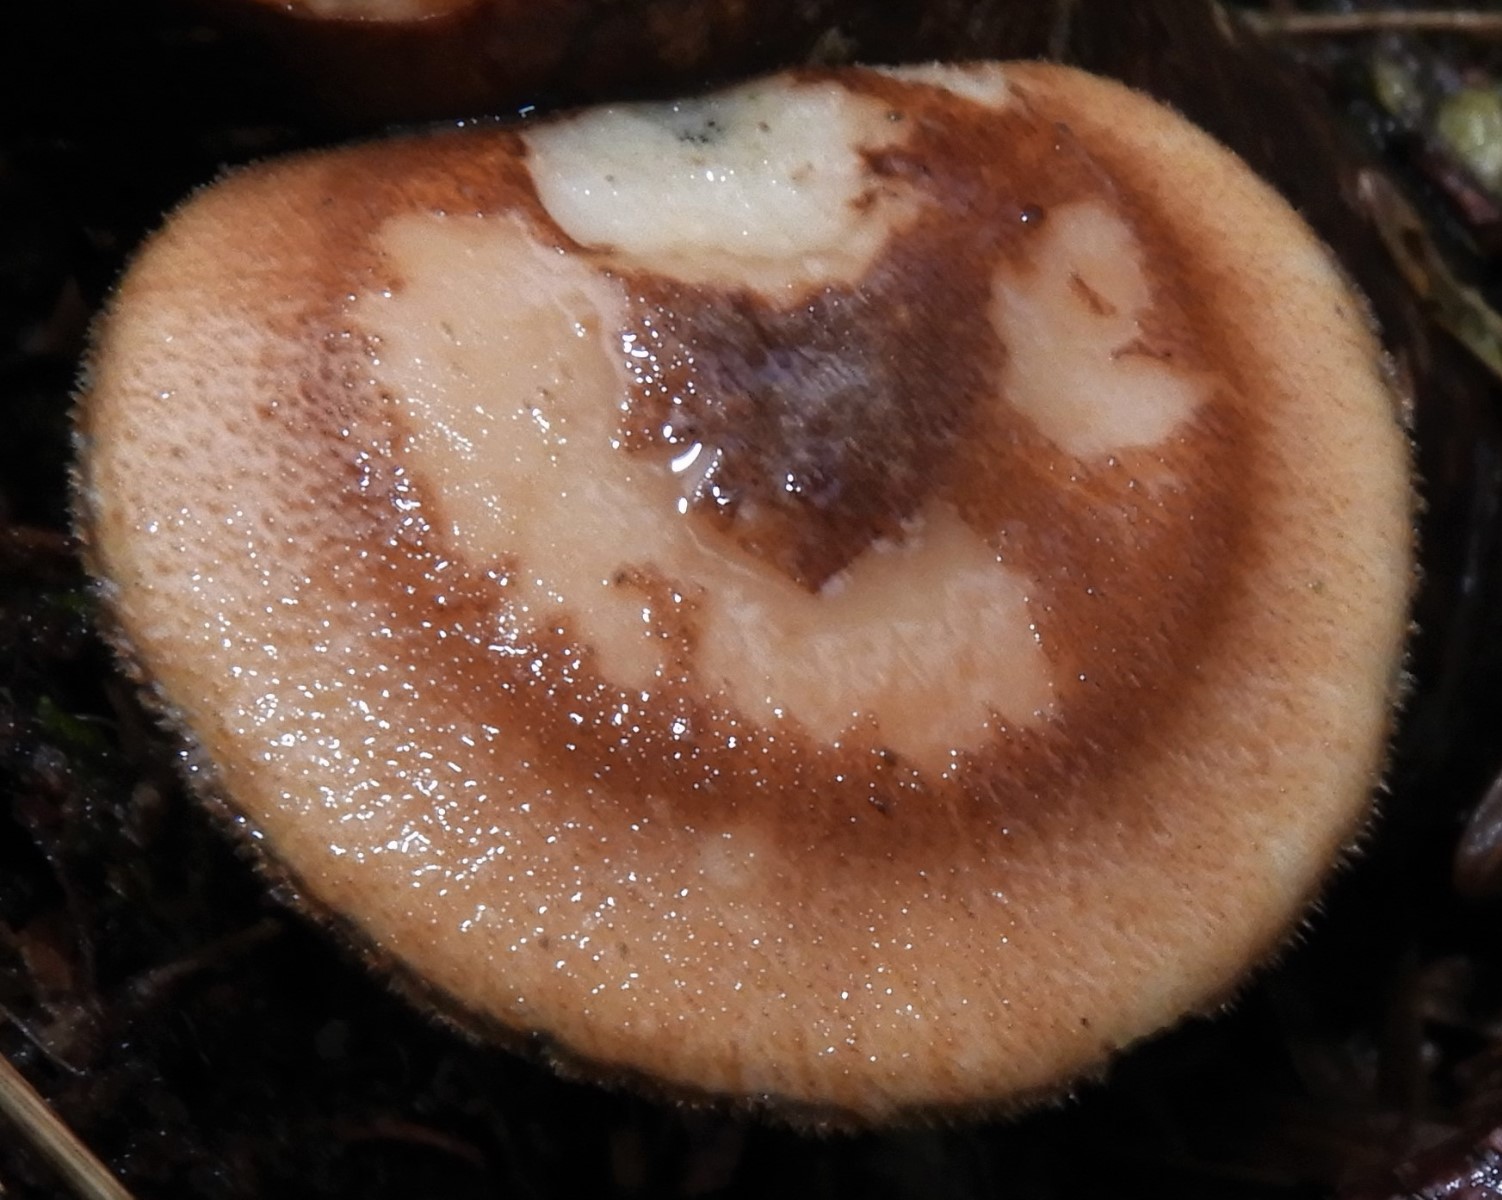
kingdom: Fungi
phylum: Basidiomycota
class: Agaricomycetes
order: Polyporales
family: Polyporaceae
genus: Lentinus
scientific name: Lentinus brumalis
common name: vinter-stilkporesvamp
